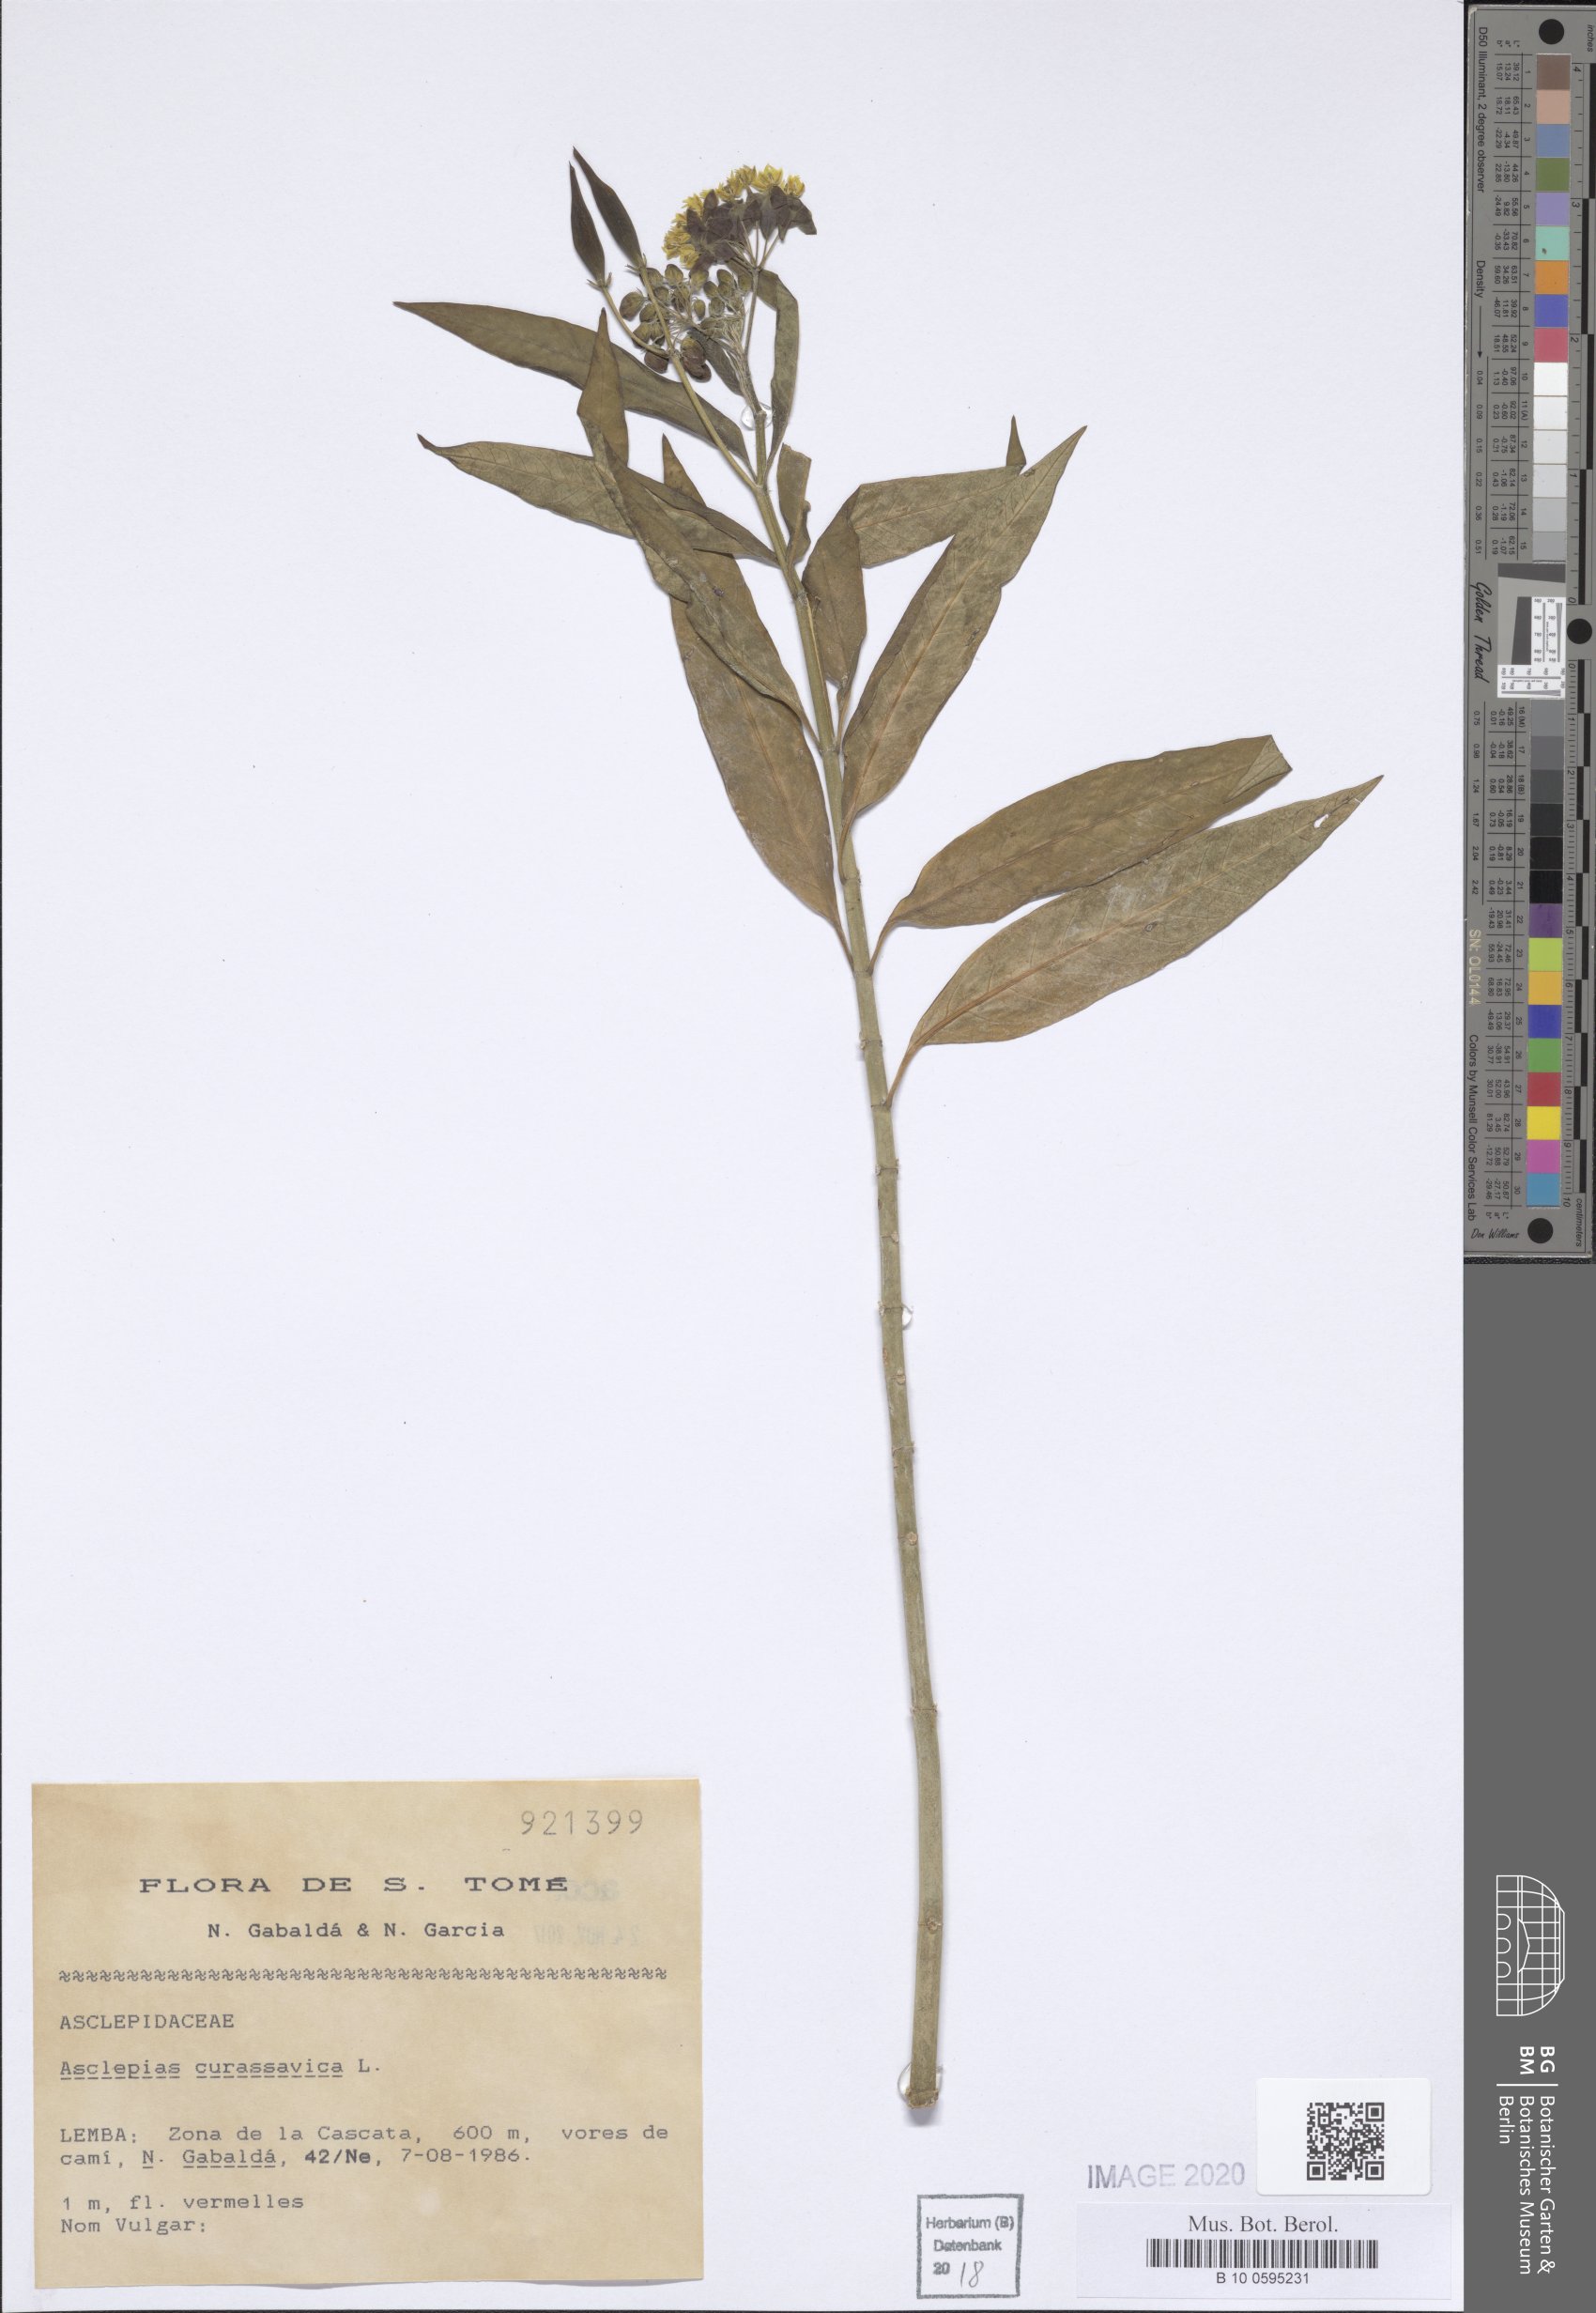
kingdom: Plantae
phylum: Tracheophyta
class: Magnoliopsida
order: Gentianales
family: Apocynaceae
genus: Asclepias
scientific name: Asclepias curassavica
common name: Bloodflower
